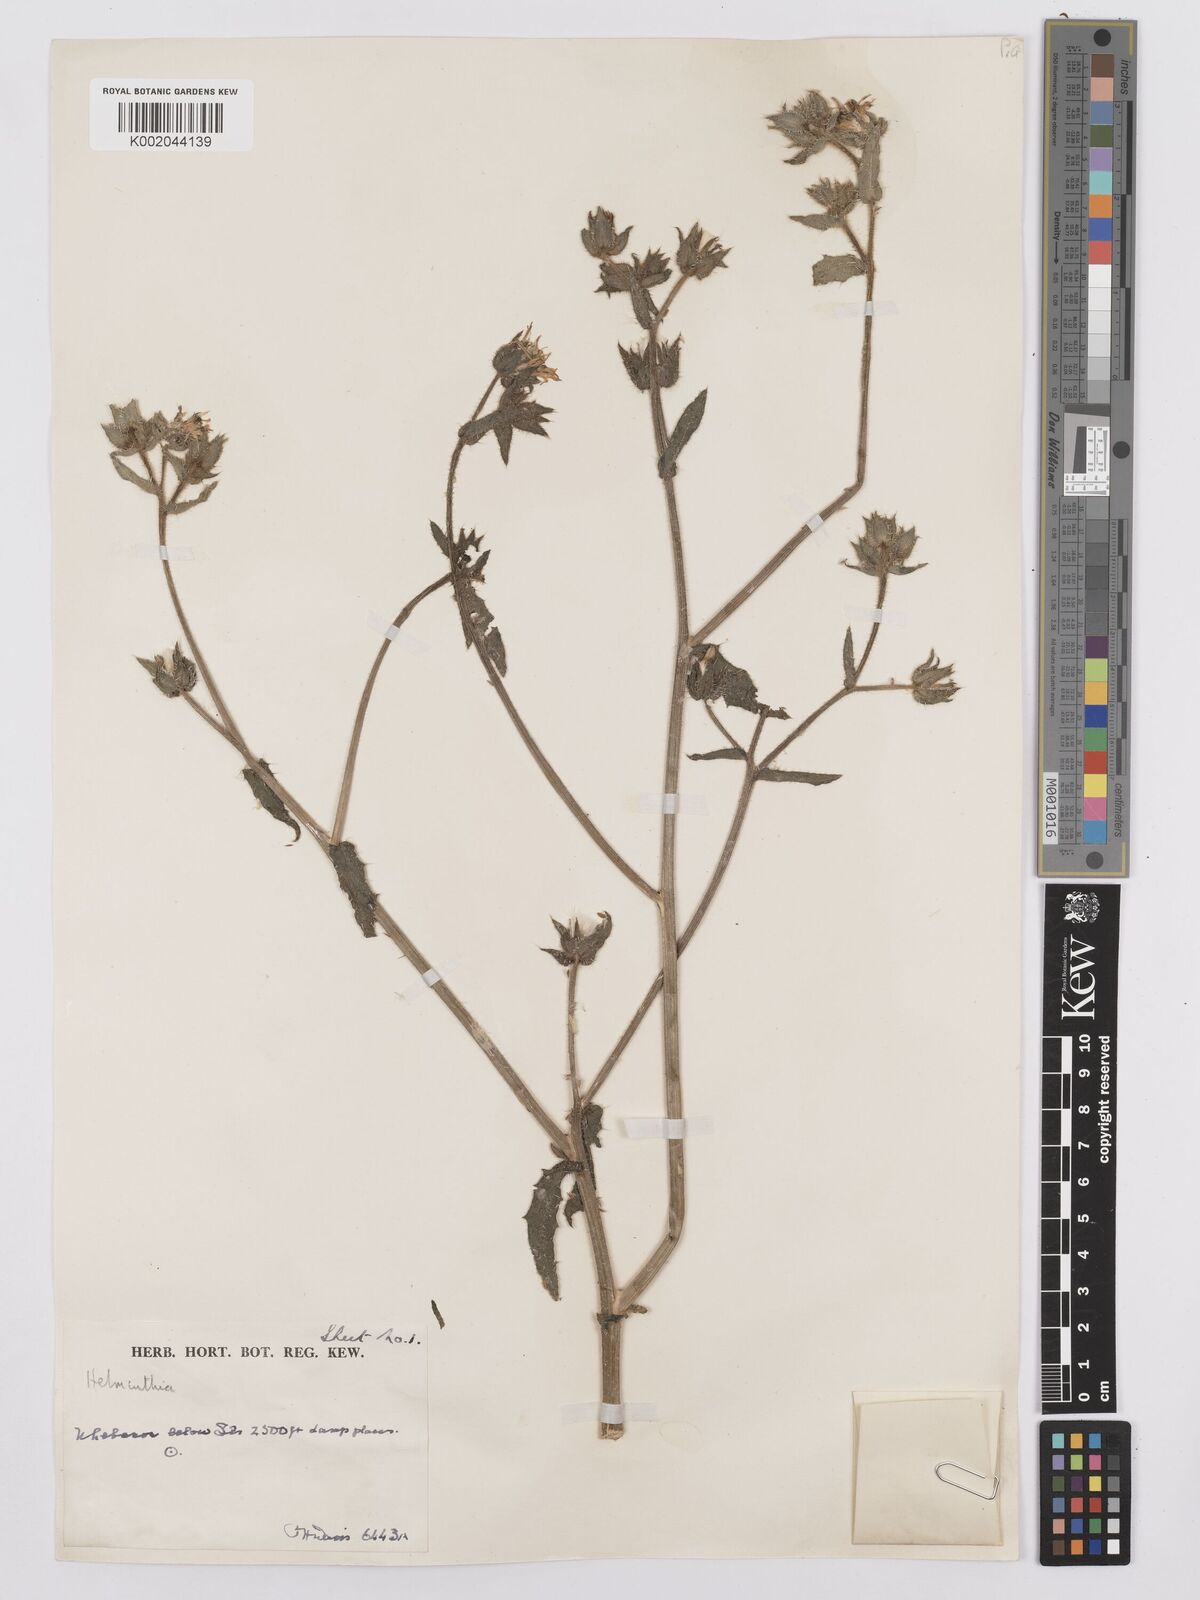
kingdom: Plantae
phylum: Tracheophyta
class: Magnoliopsida
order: Asterales
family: Asteraceae
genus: Picris
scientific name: Picris
